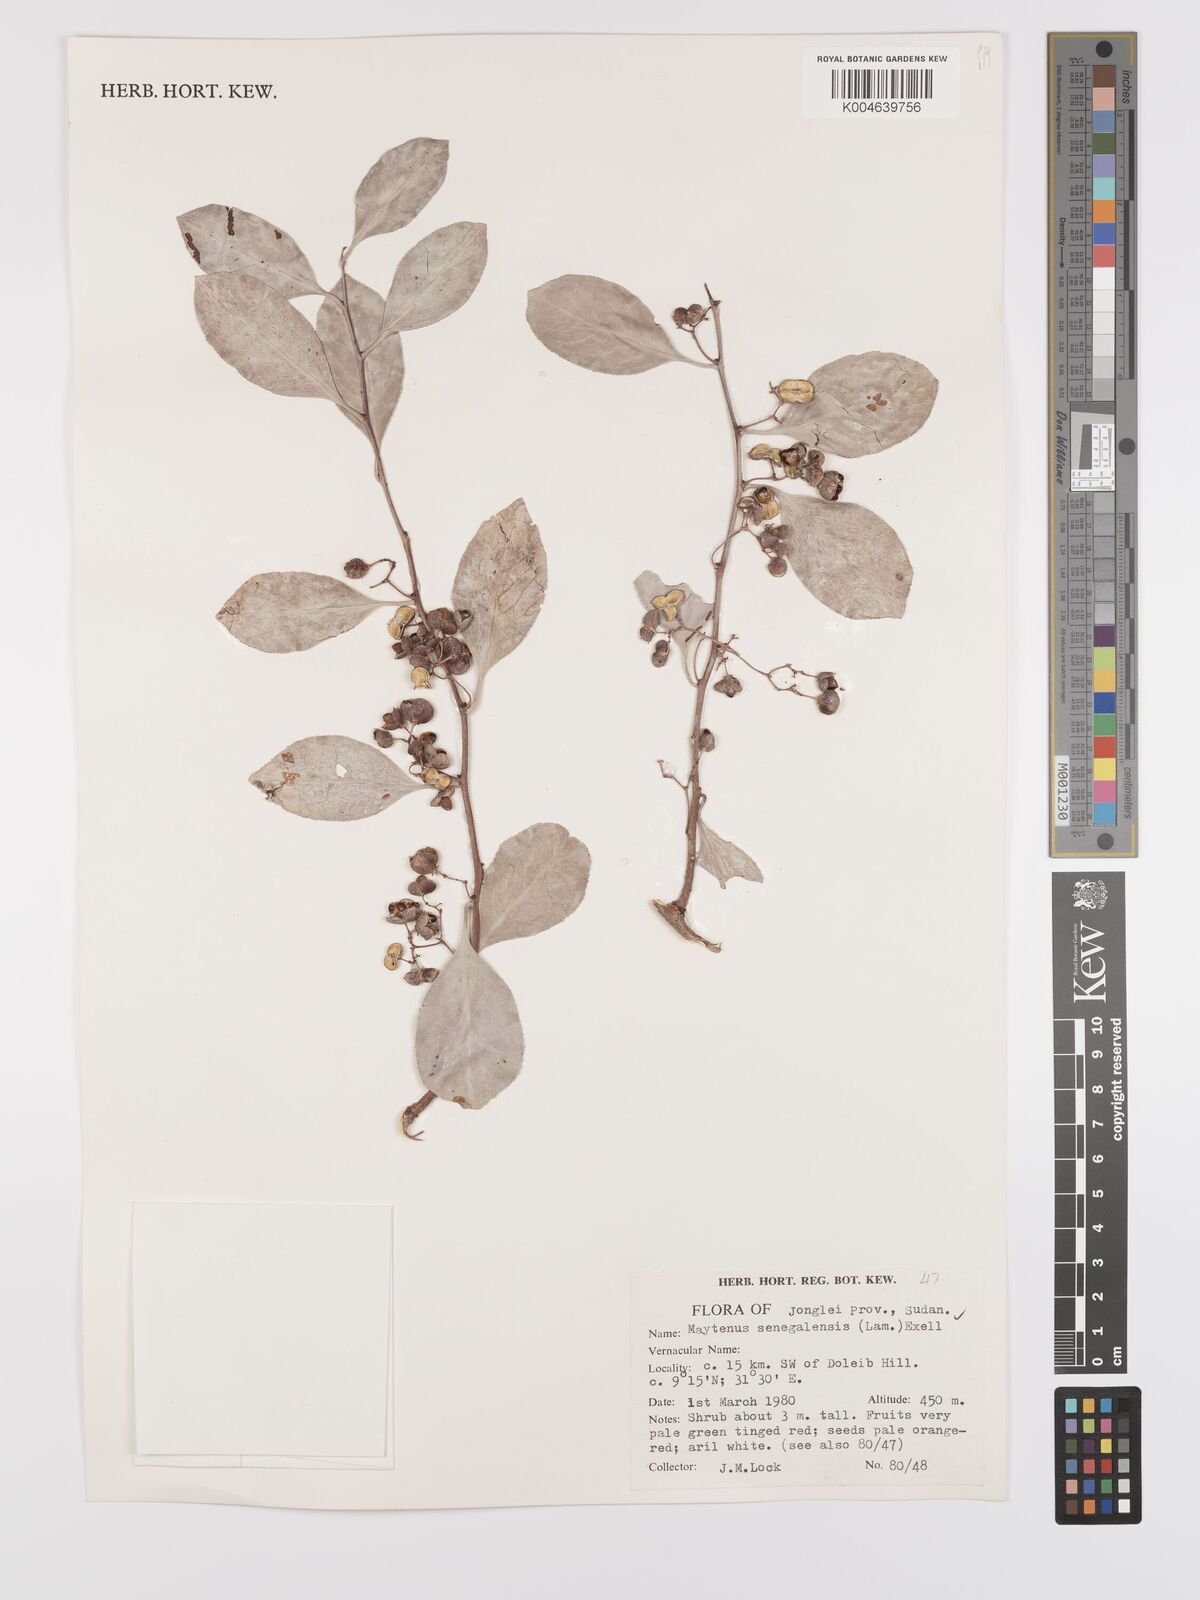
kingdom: Plantae
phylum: Tracheophyta
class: Magnoliopsida
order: Celastrales
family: Celastraceae
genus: Gymnosporia
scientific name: Gymnosporia senegalensis
